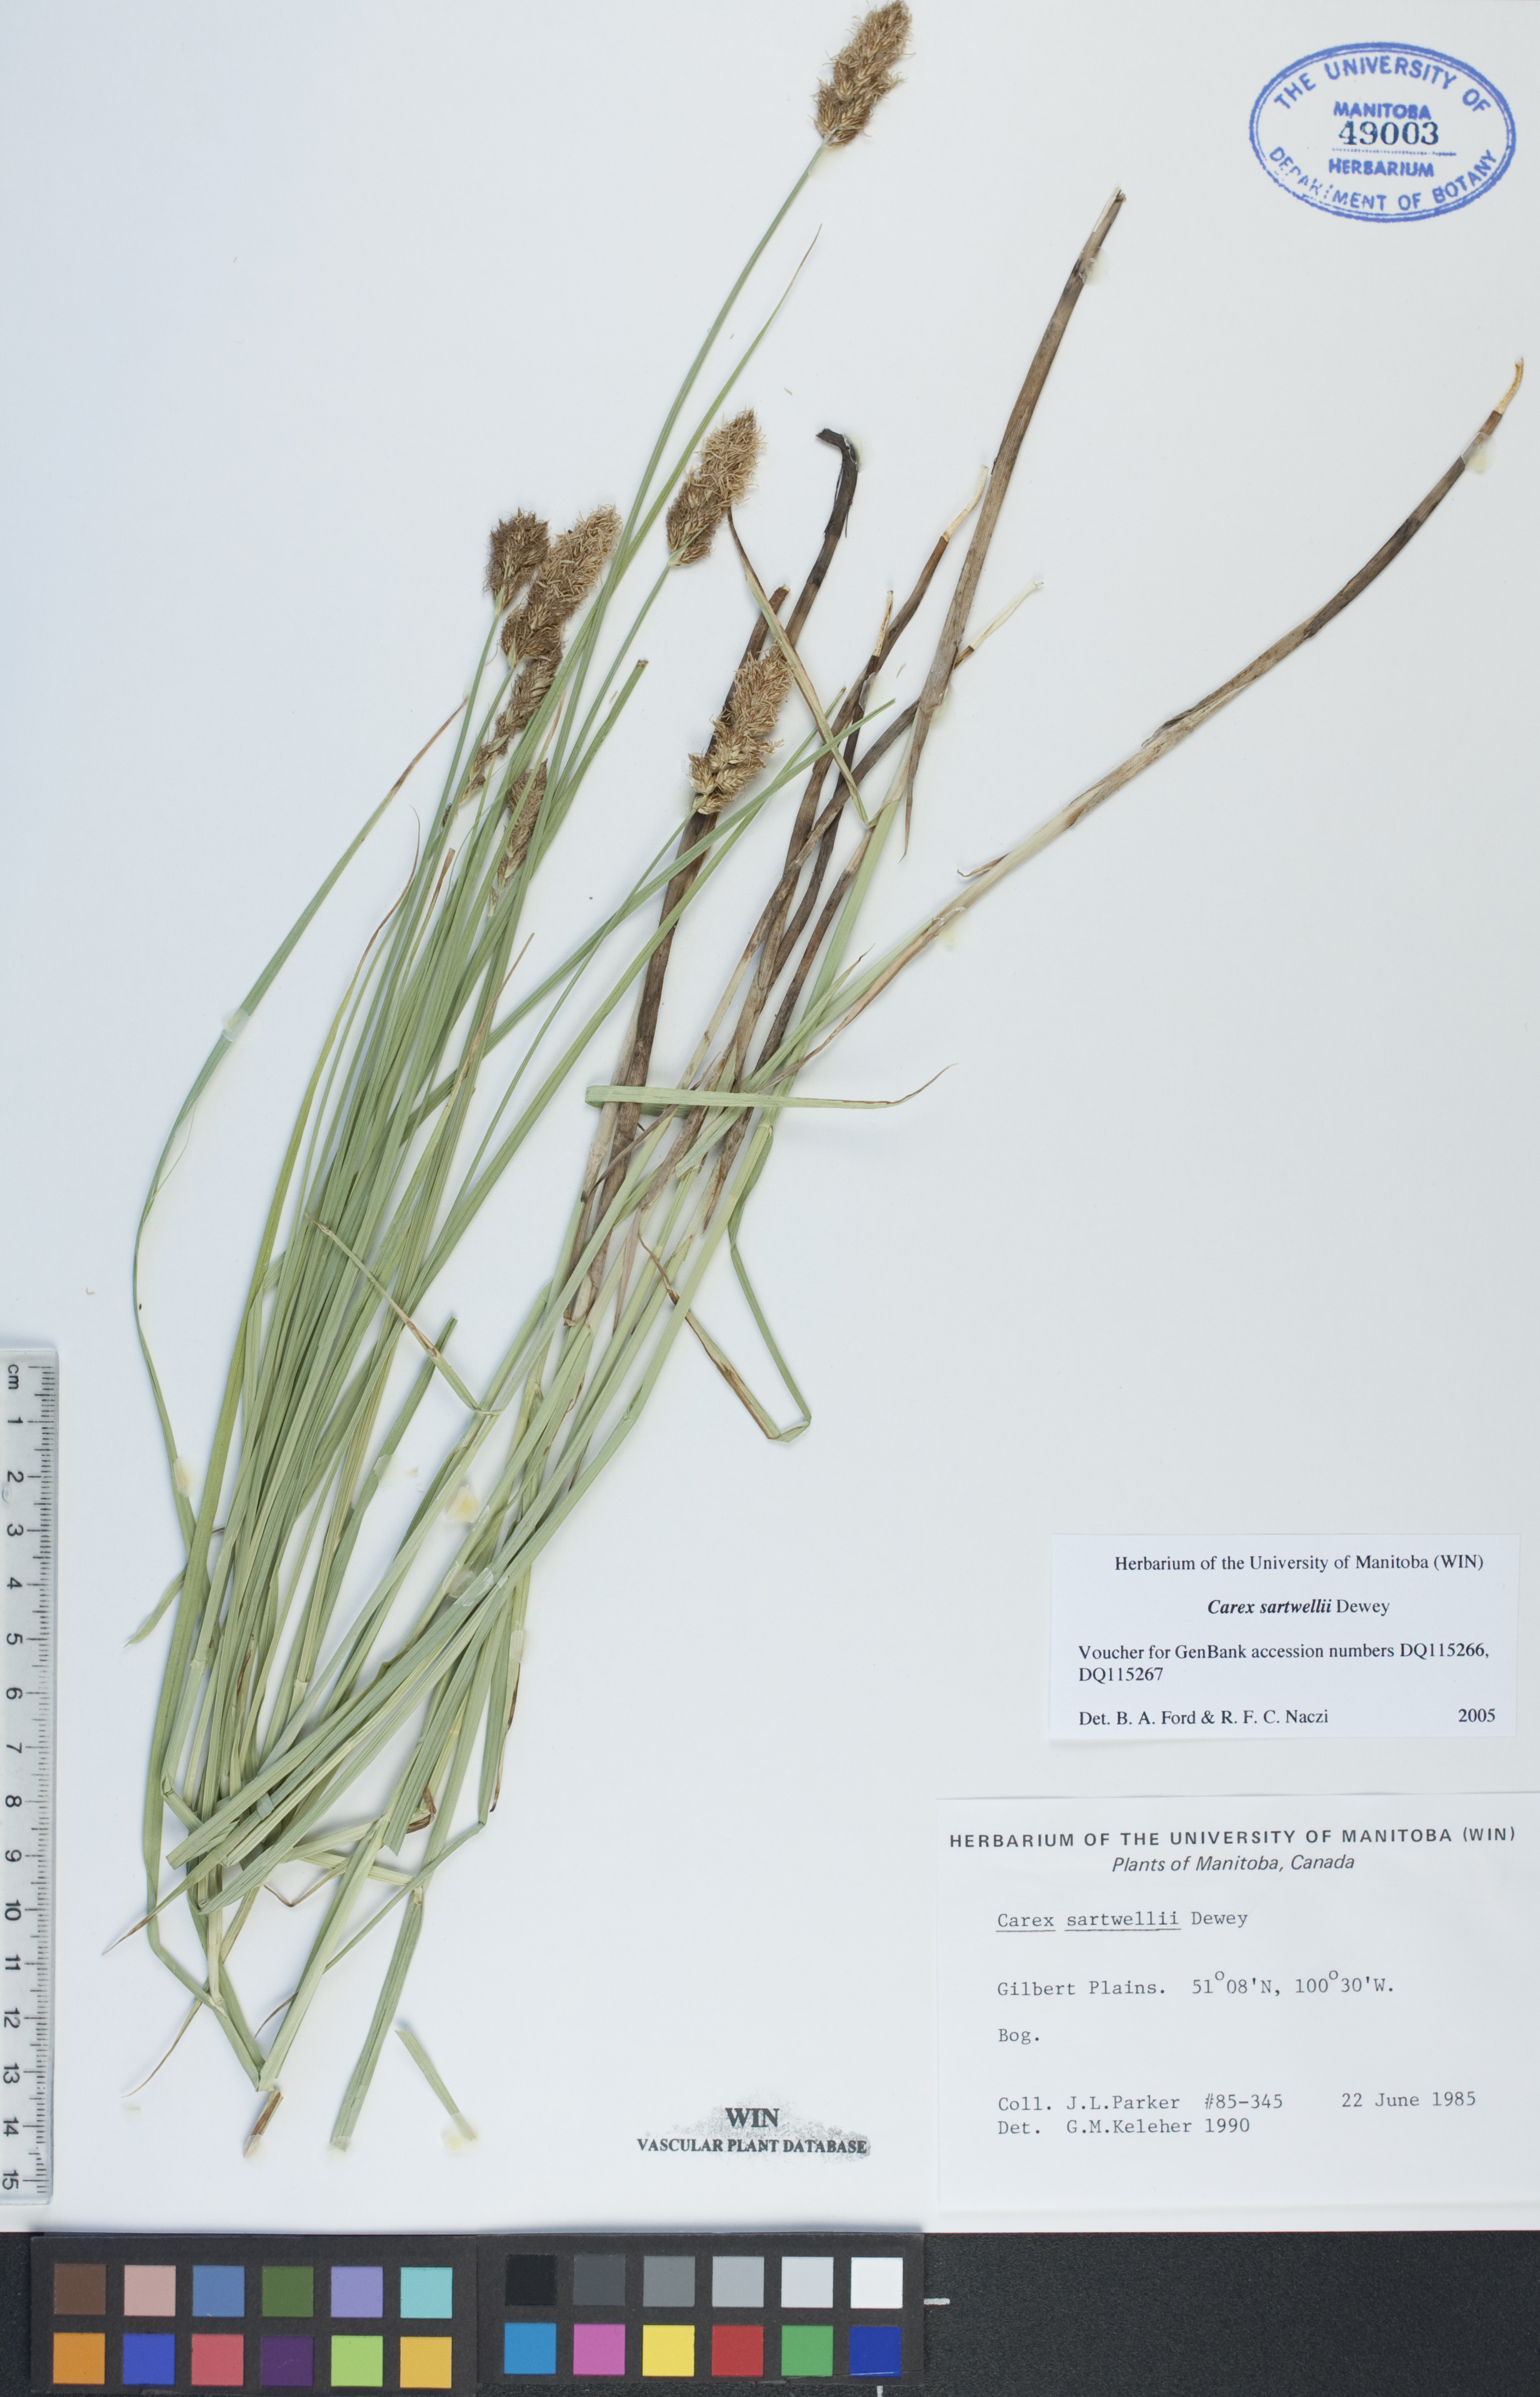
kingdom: Plantae
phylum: Tracheophyta
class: Liliopsida
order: Poales
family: Cyperaceae
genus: Carex
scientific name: Carex sartwellii
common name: Sartwell's sedge
